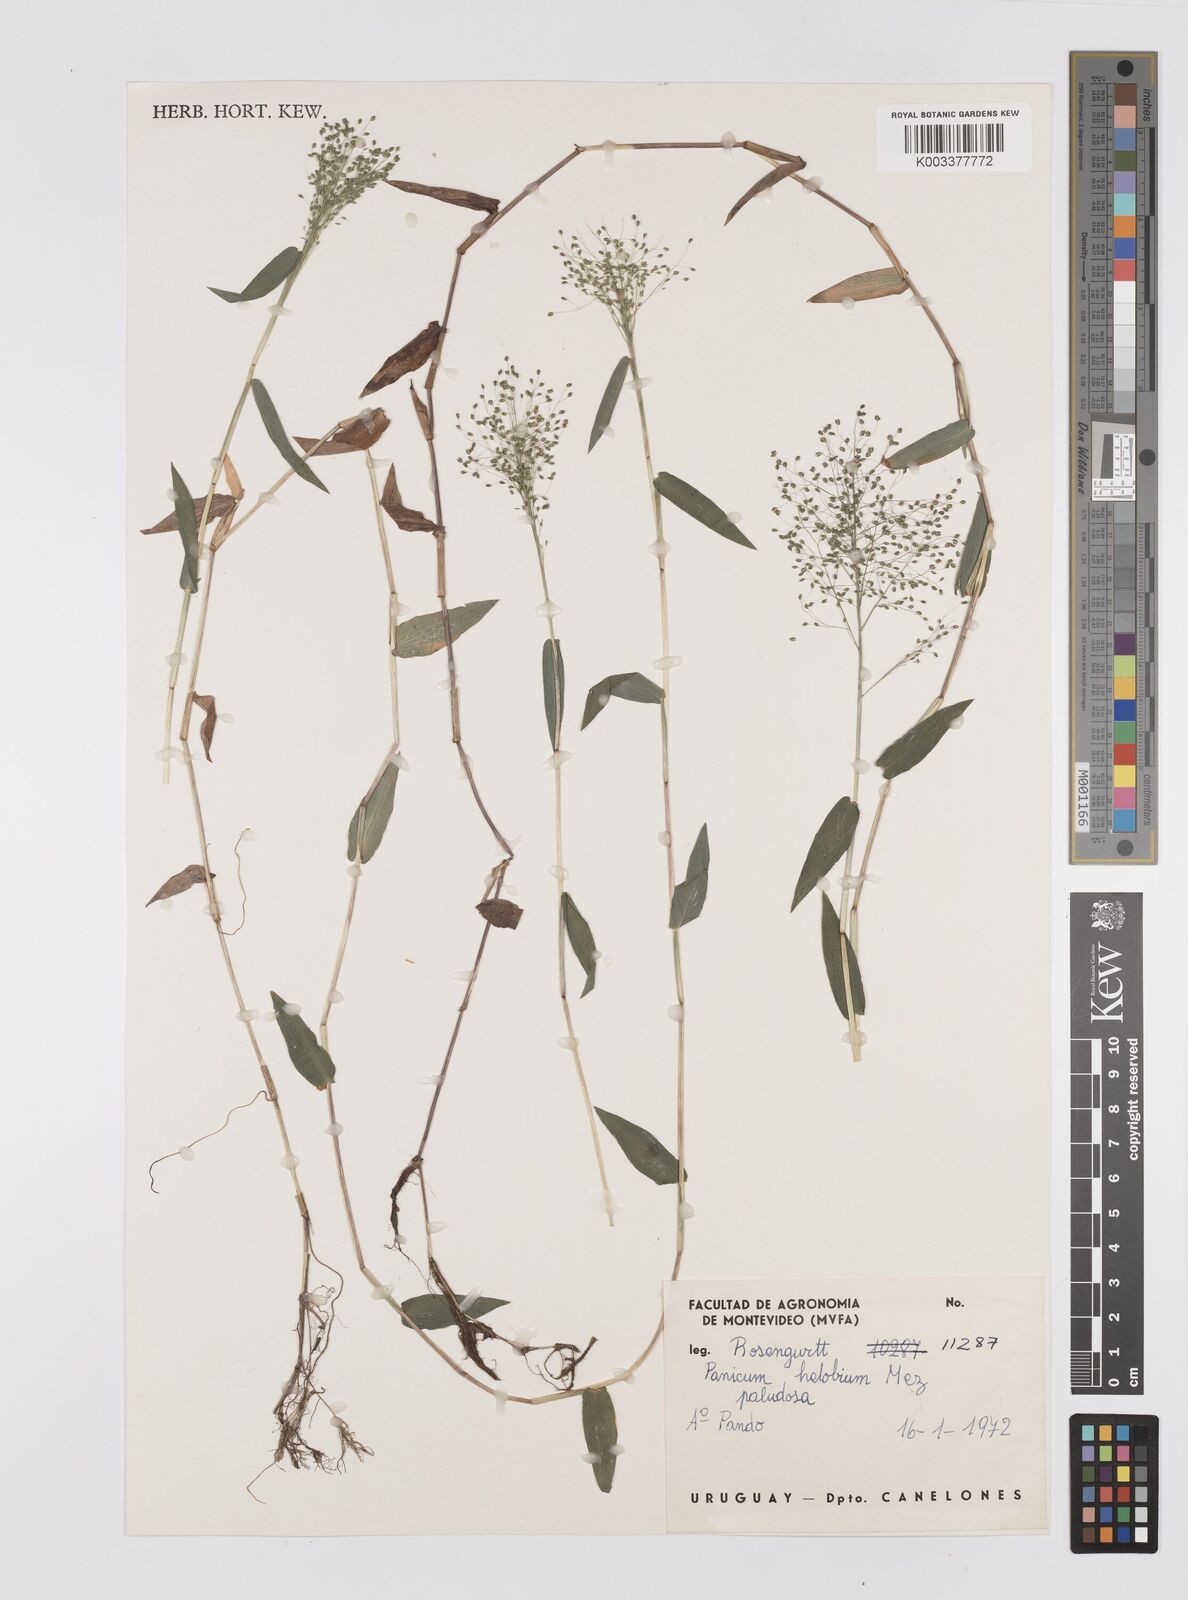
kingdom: Plantae
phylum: Tracheophyta
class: Liliopsida
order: Poales
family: Poaceae
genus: Trichanthecium
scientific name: Trichanthecium schwackeanum
